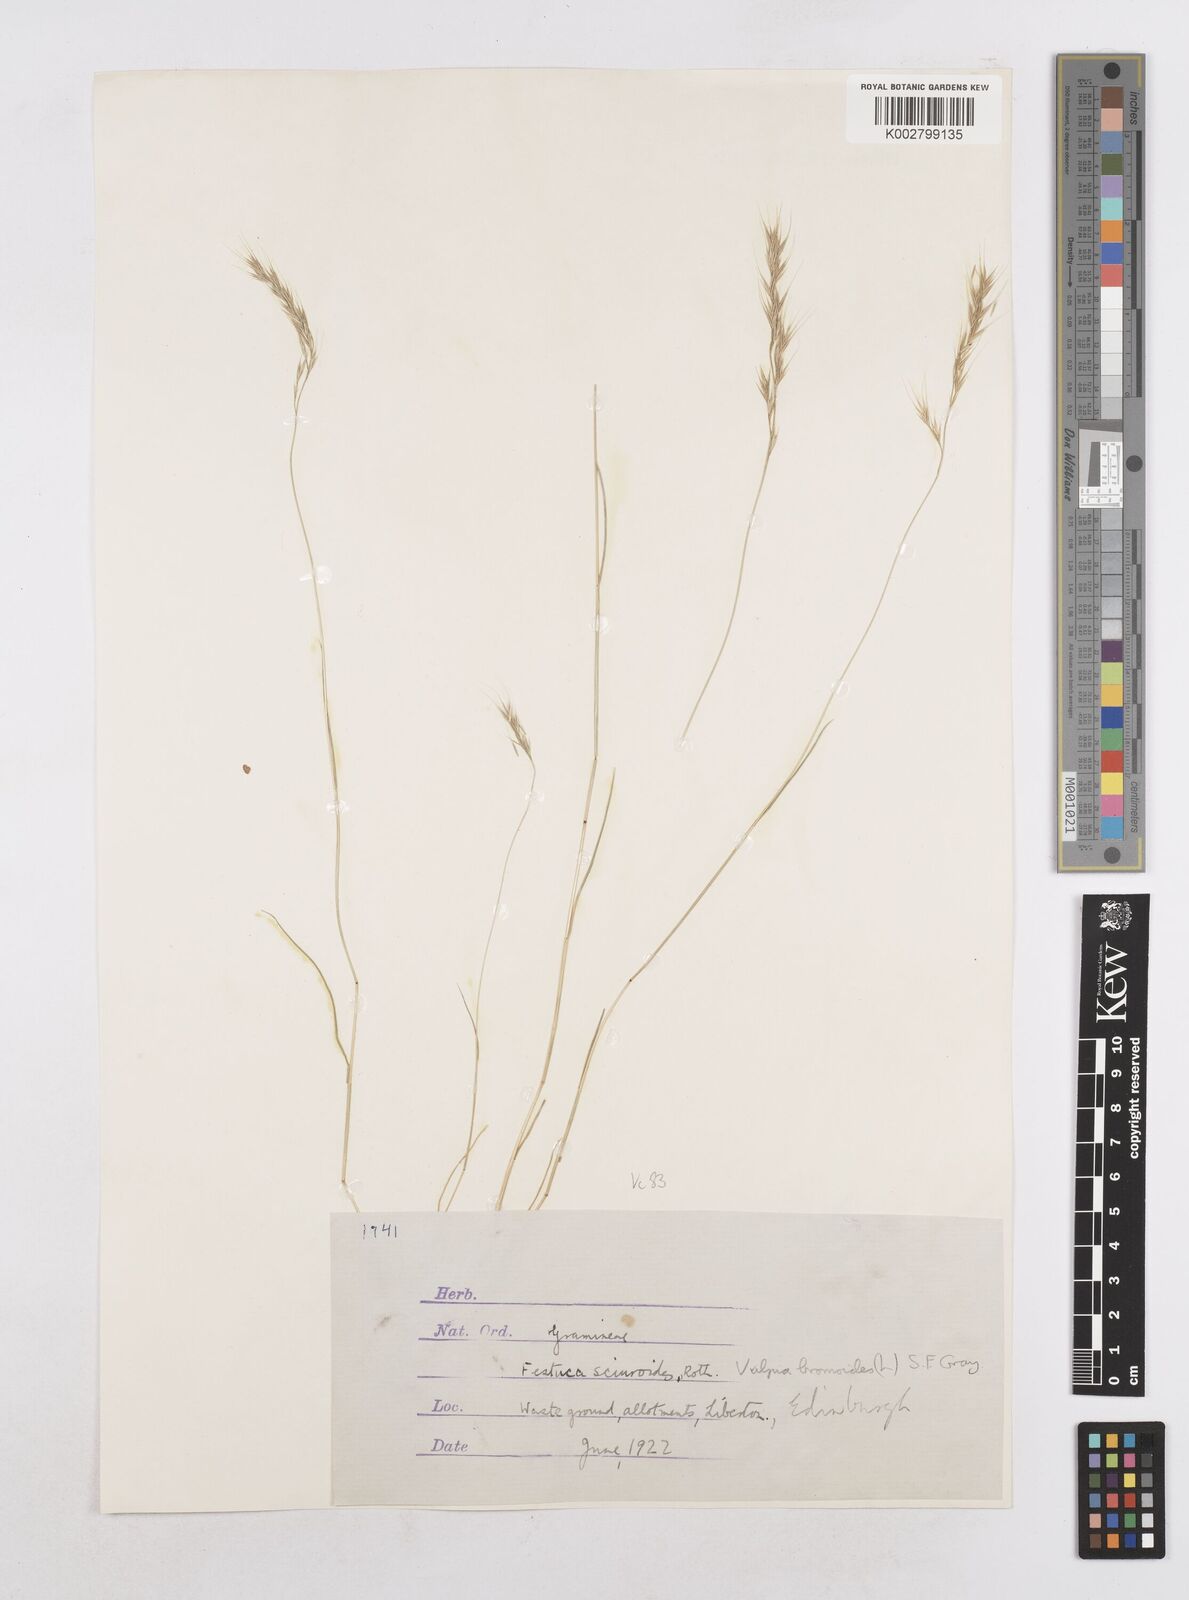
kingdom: Plantae
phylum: Tracheophyta
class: Liliopsida
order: Poales
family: Poaceae
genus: Festuca
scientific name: Festuca bromoides
